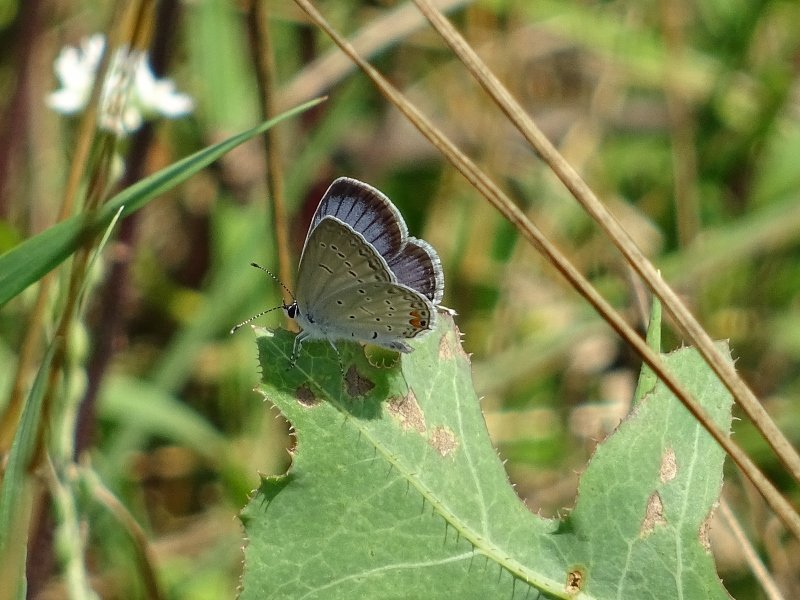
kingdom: Animalia
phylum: Arthropoda
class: Insecta
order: Lepidoptera
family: Lycaenidae
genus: Elkalyce
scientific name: Elkalyce comyntas
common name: Eastern Tailed-Blue
